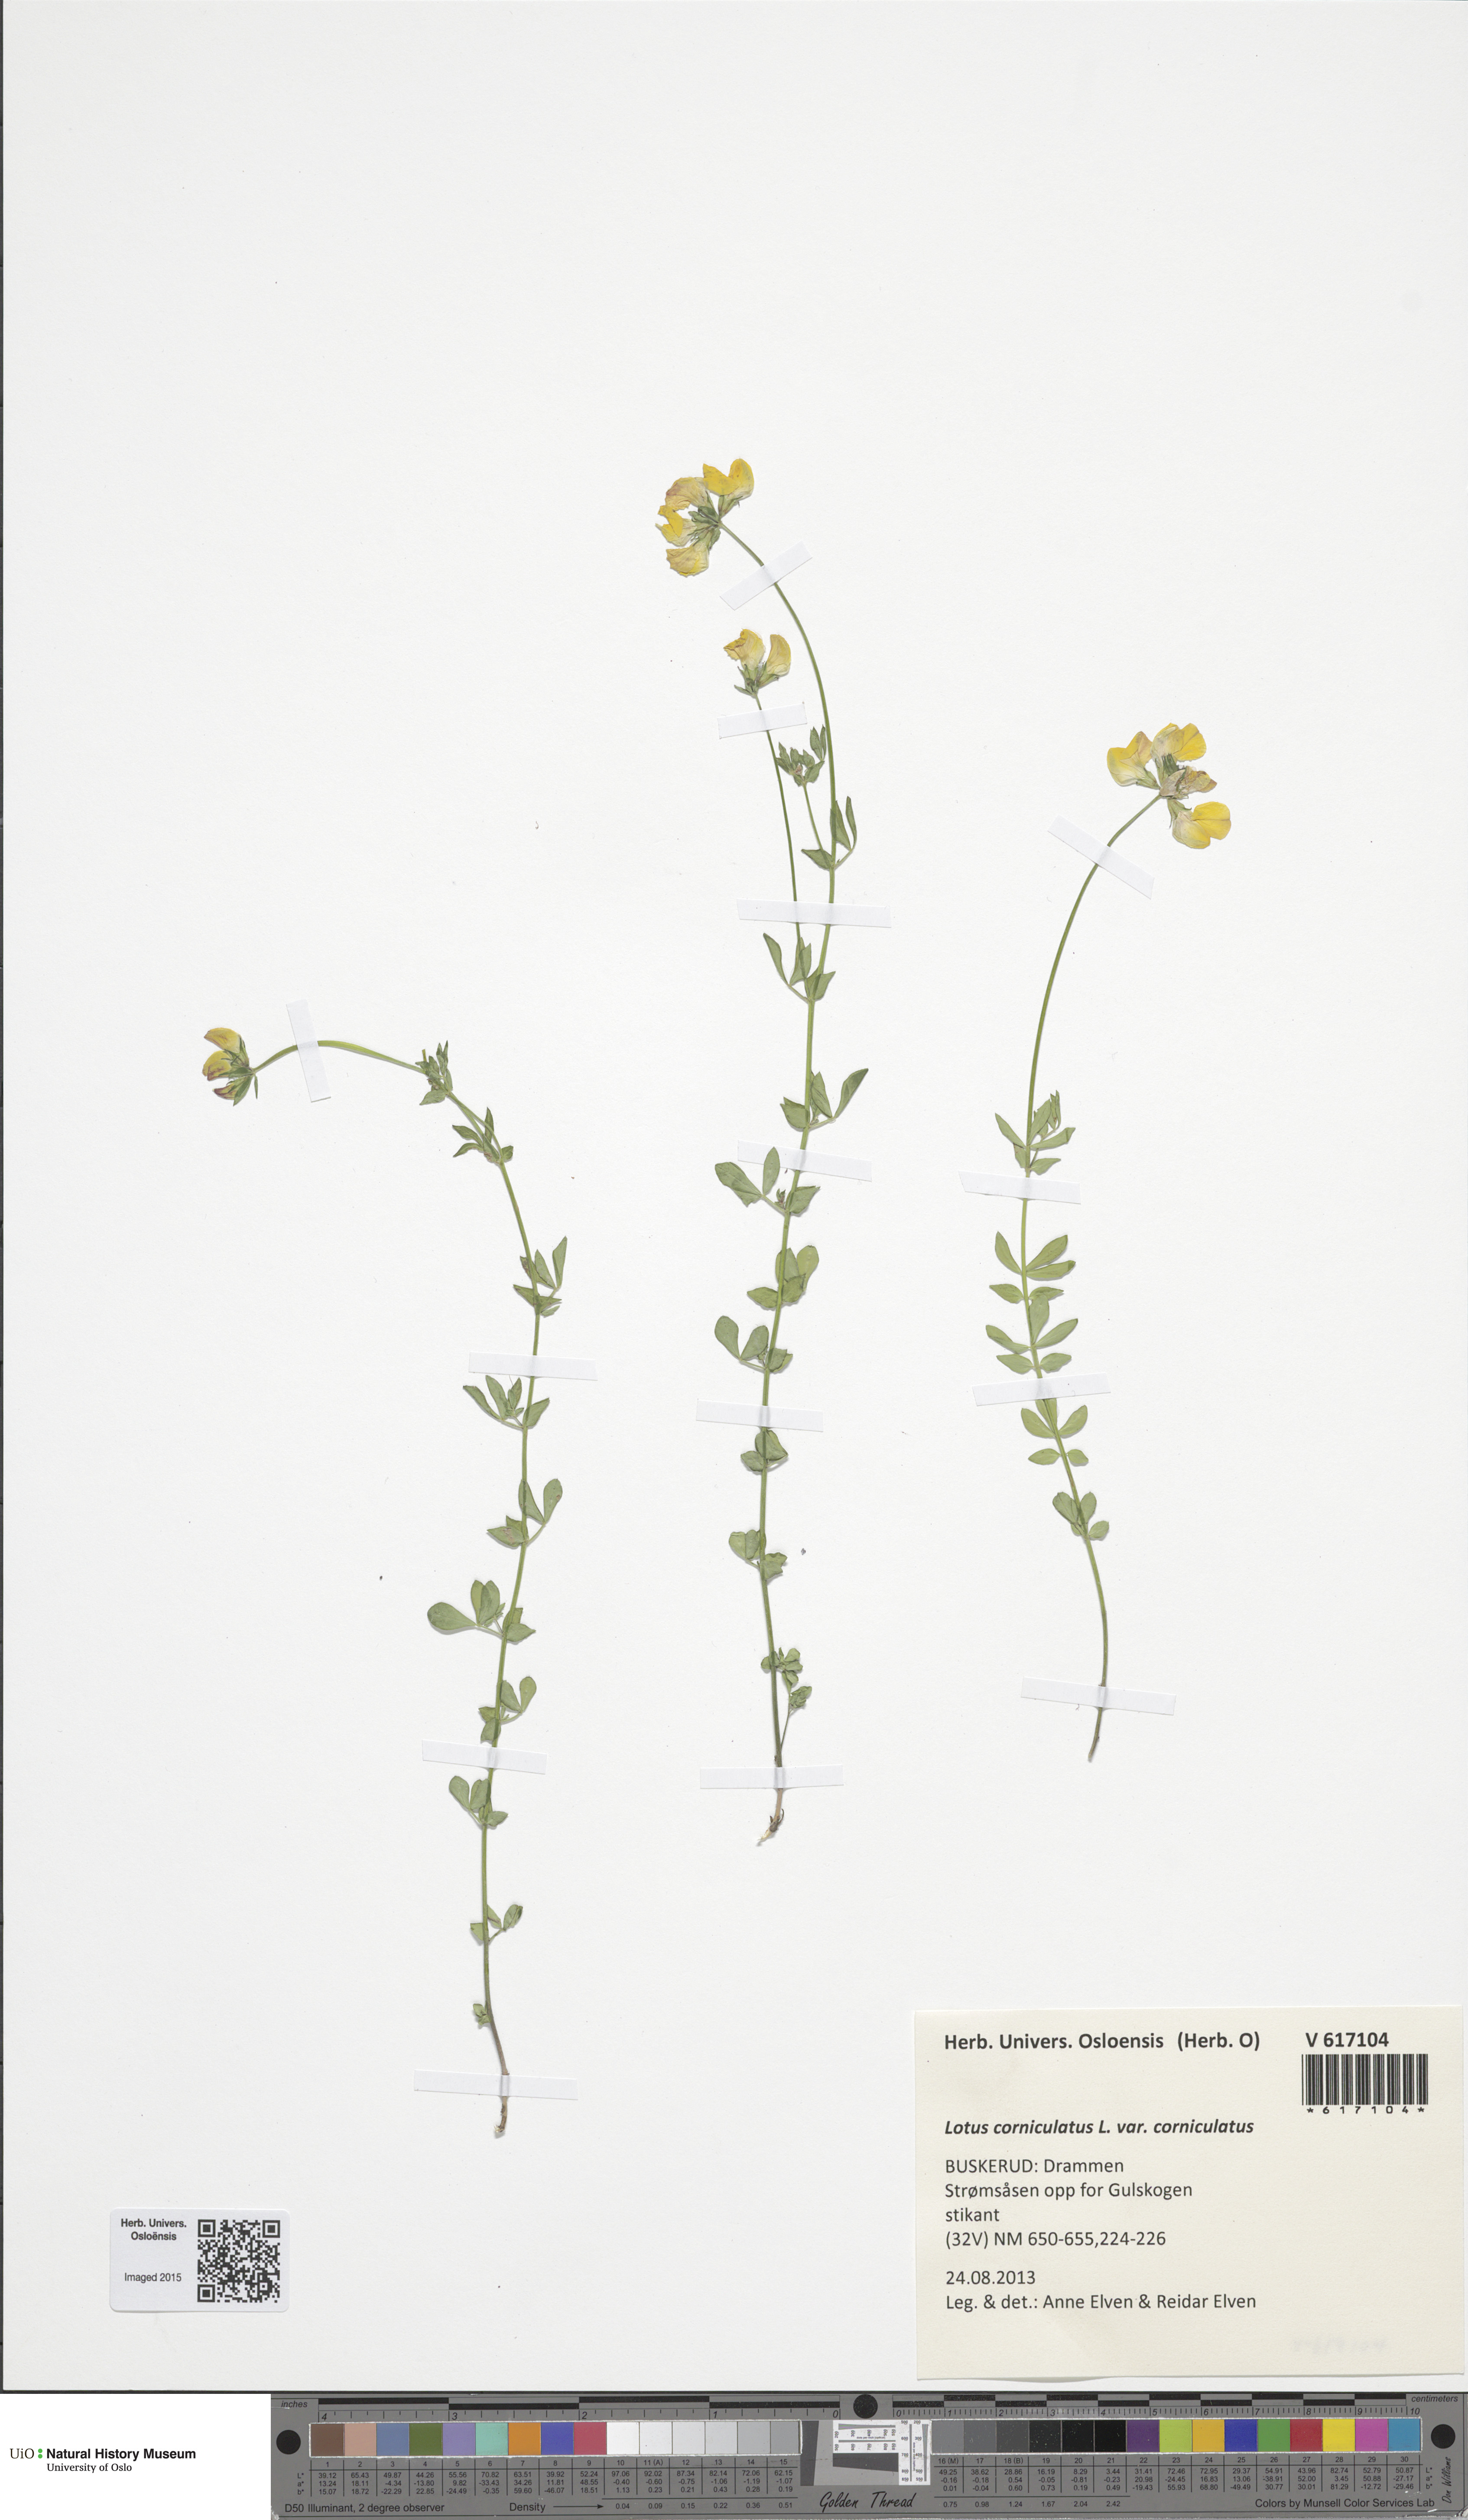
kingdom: Plantae
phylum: Tracheophyta
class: Magnoliopsida
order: Fabales
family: Fabaceae
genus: Lotus
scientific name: Lotus corniculatus
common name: Common bird's-foot-trefoil
